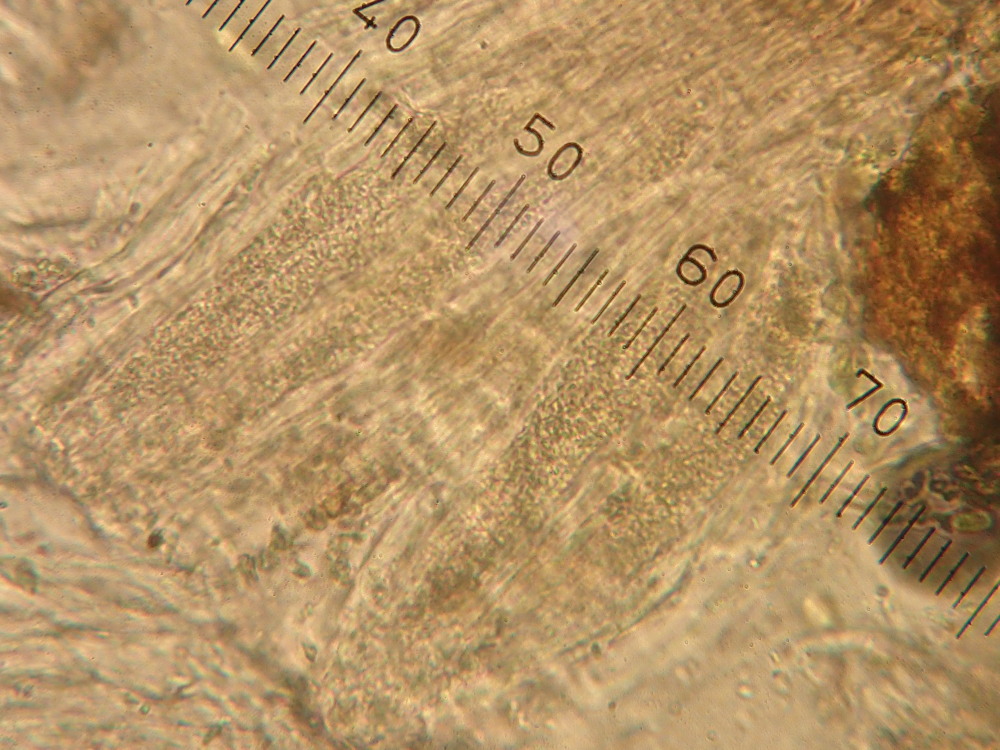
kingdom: Fungi
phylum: Ascomycota
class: Lecanoromycetes
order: Acarosporales
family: Acarosporaceae
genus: Acarospora
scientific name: Acarospora privigna
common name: sort foldekantlav
